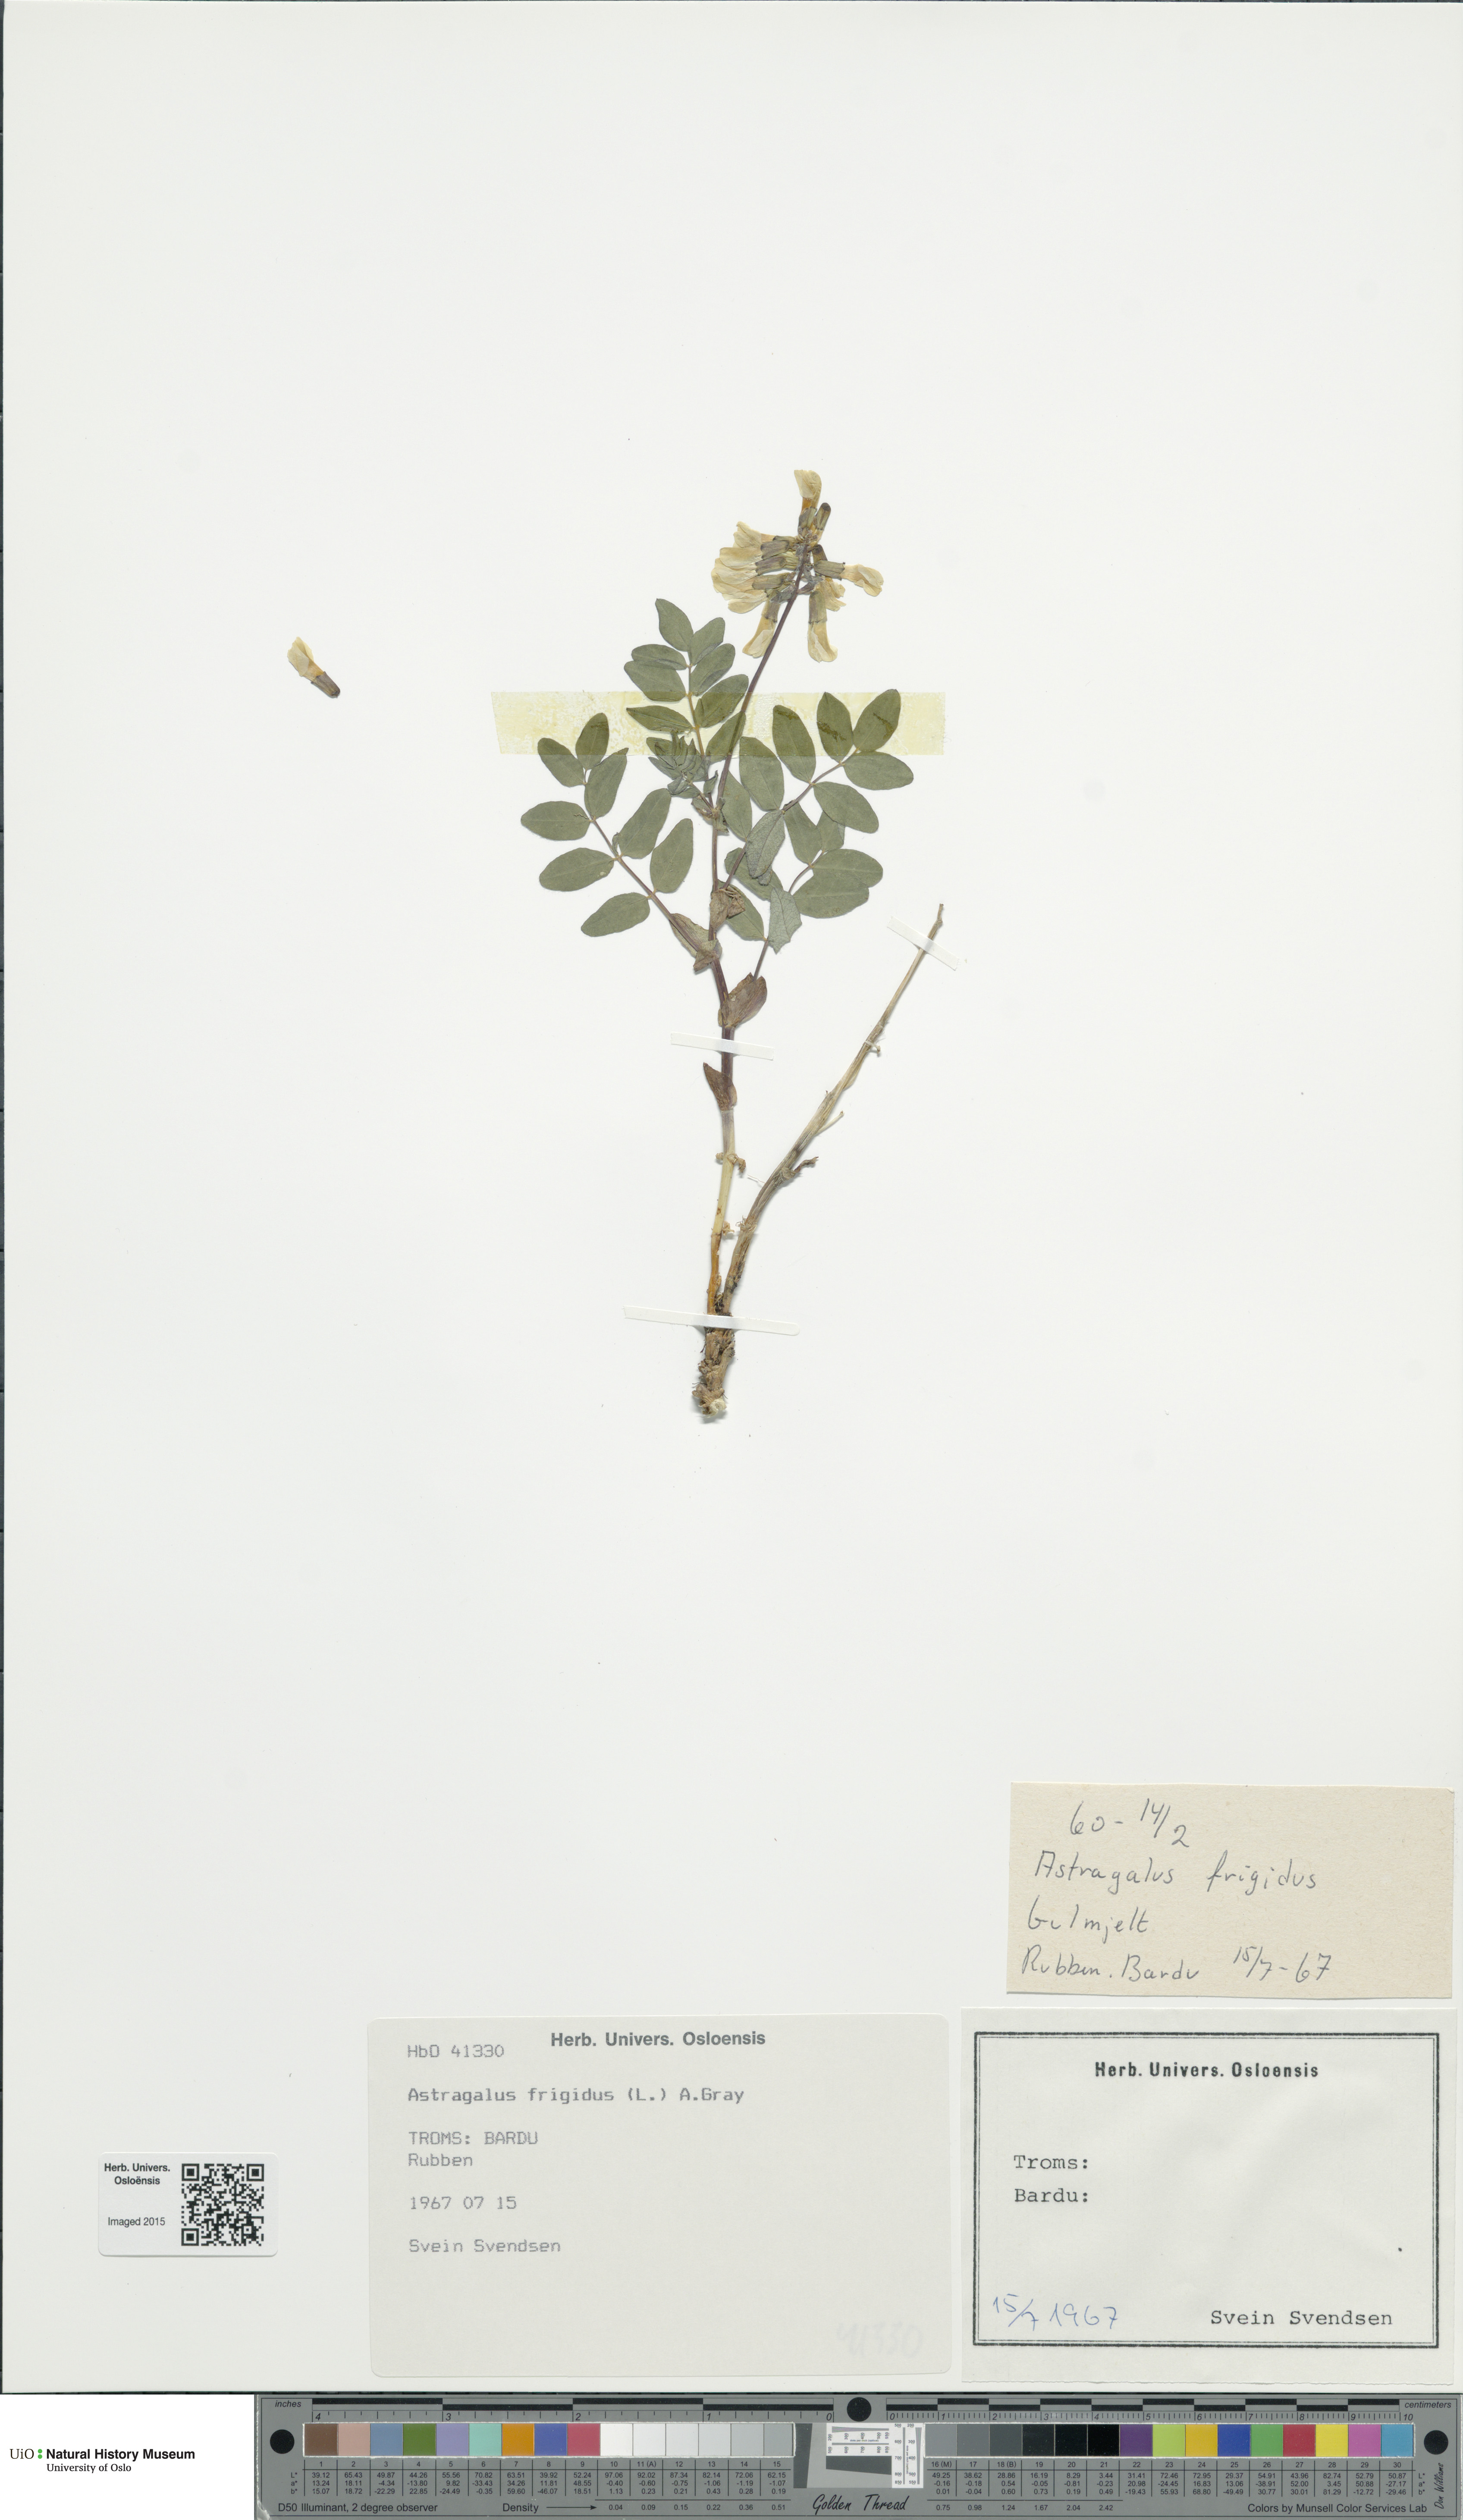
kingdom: Plantae
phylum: Tracheophyta
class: Magnoliopsida
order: Fabales
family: Fabaceae
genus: Astragalus
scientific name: Astragalus frigidus
